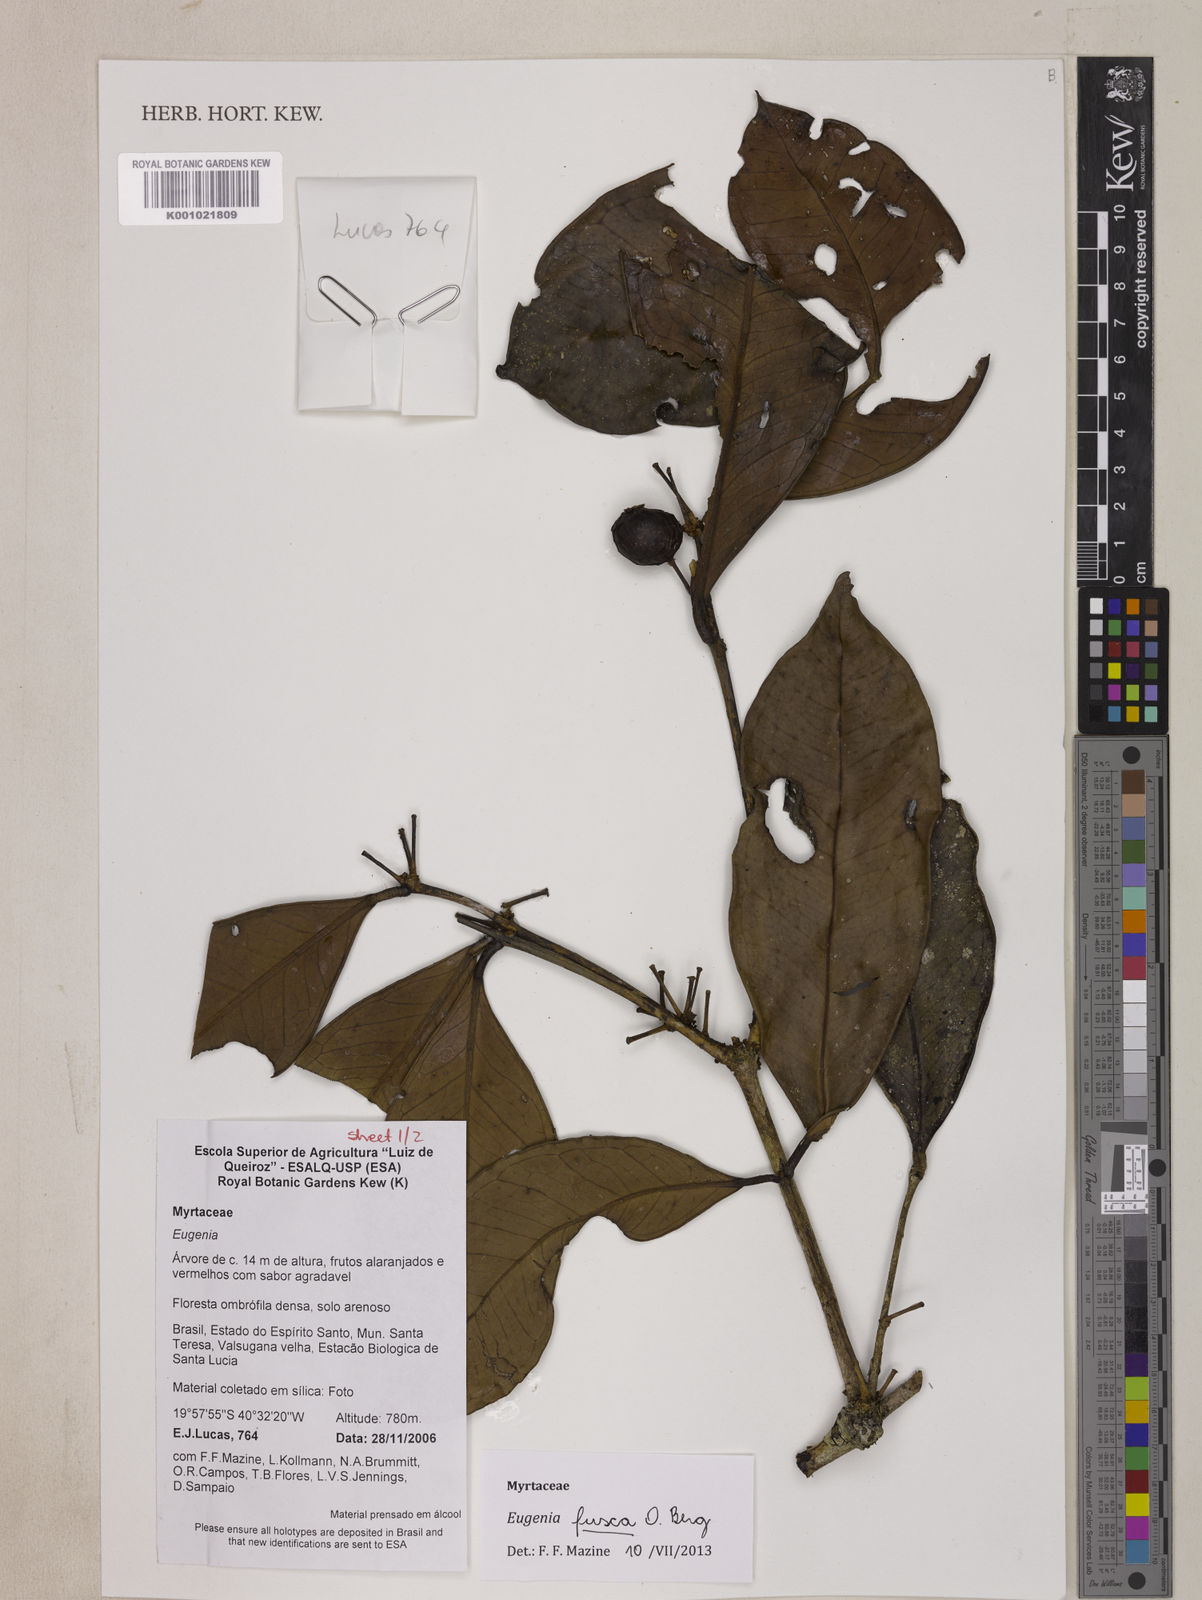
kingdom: Plantae
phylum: Tracheophyta
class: Magnoliopsida
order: Myrtales
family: Myrtaceae
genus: Eugenia
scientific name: Eugenia fusca
